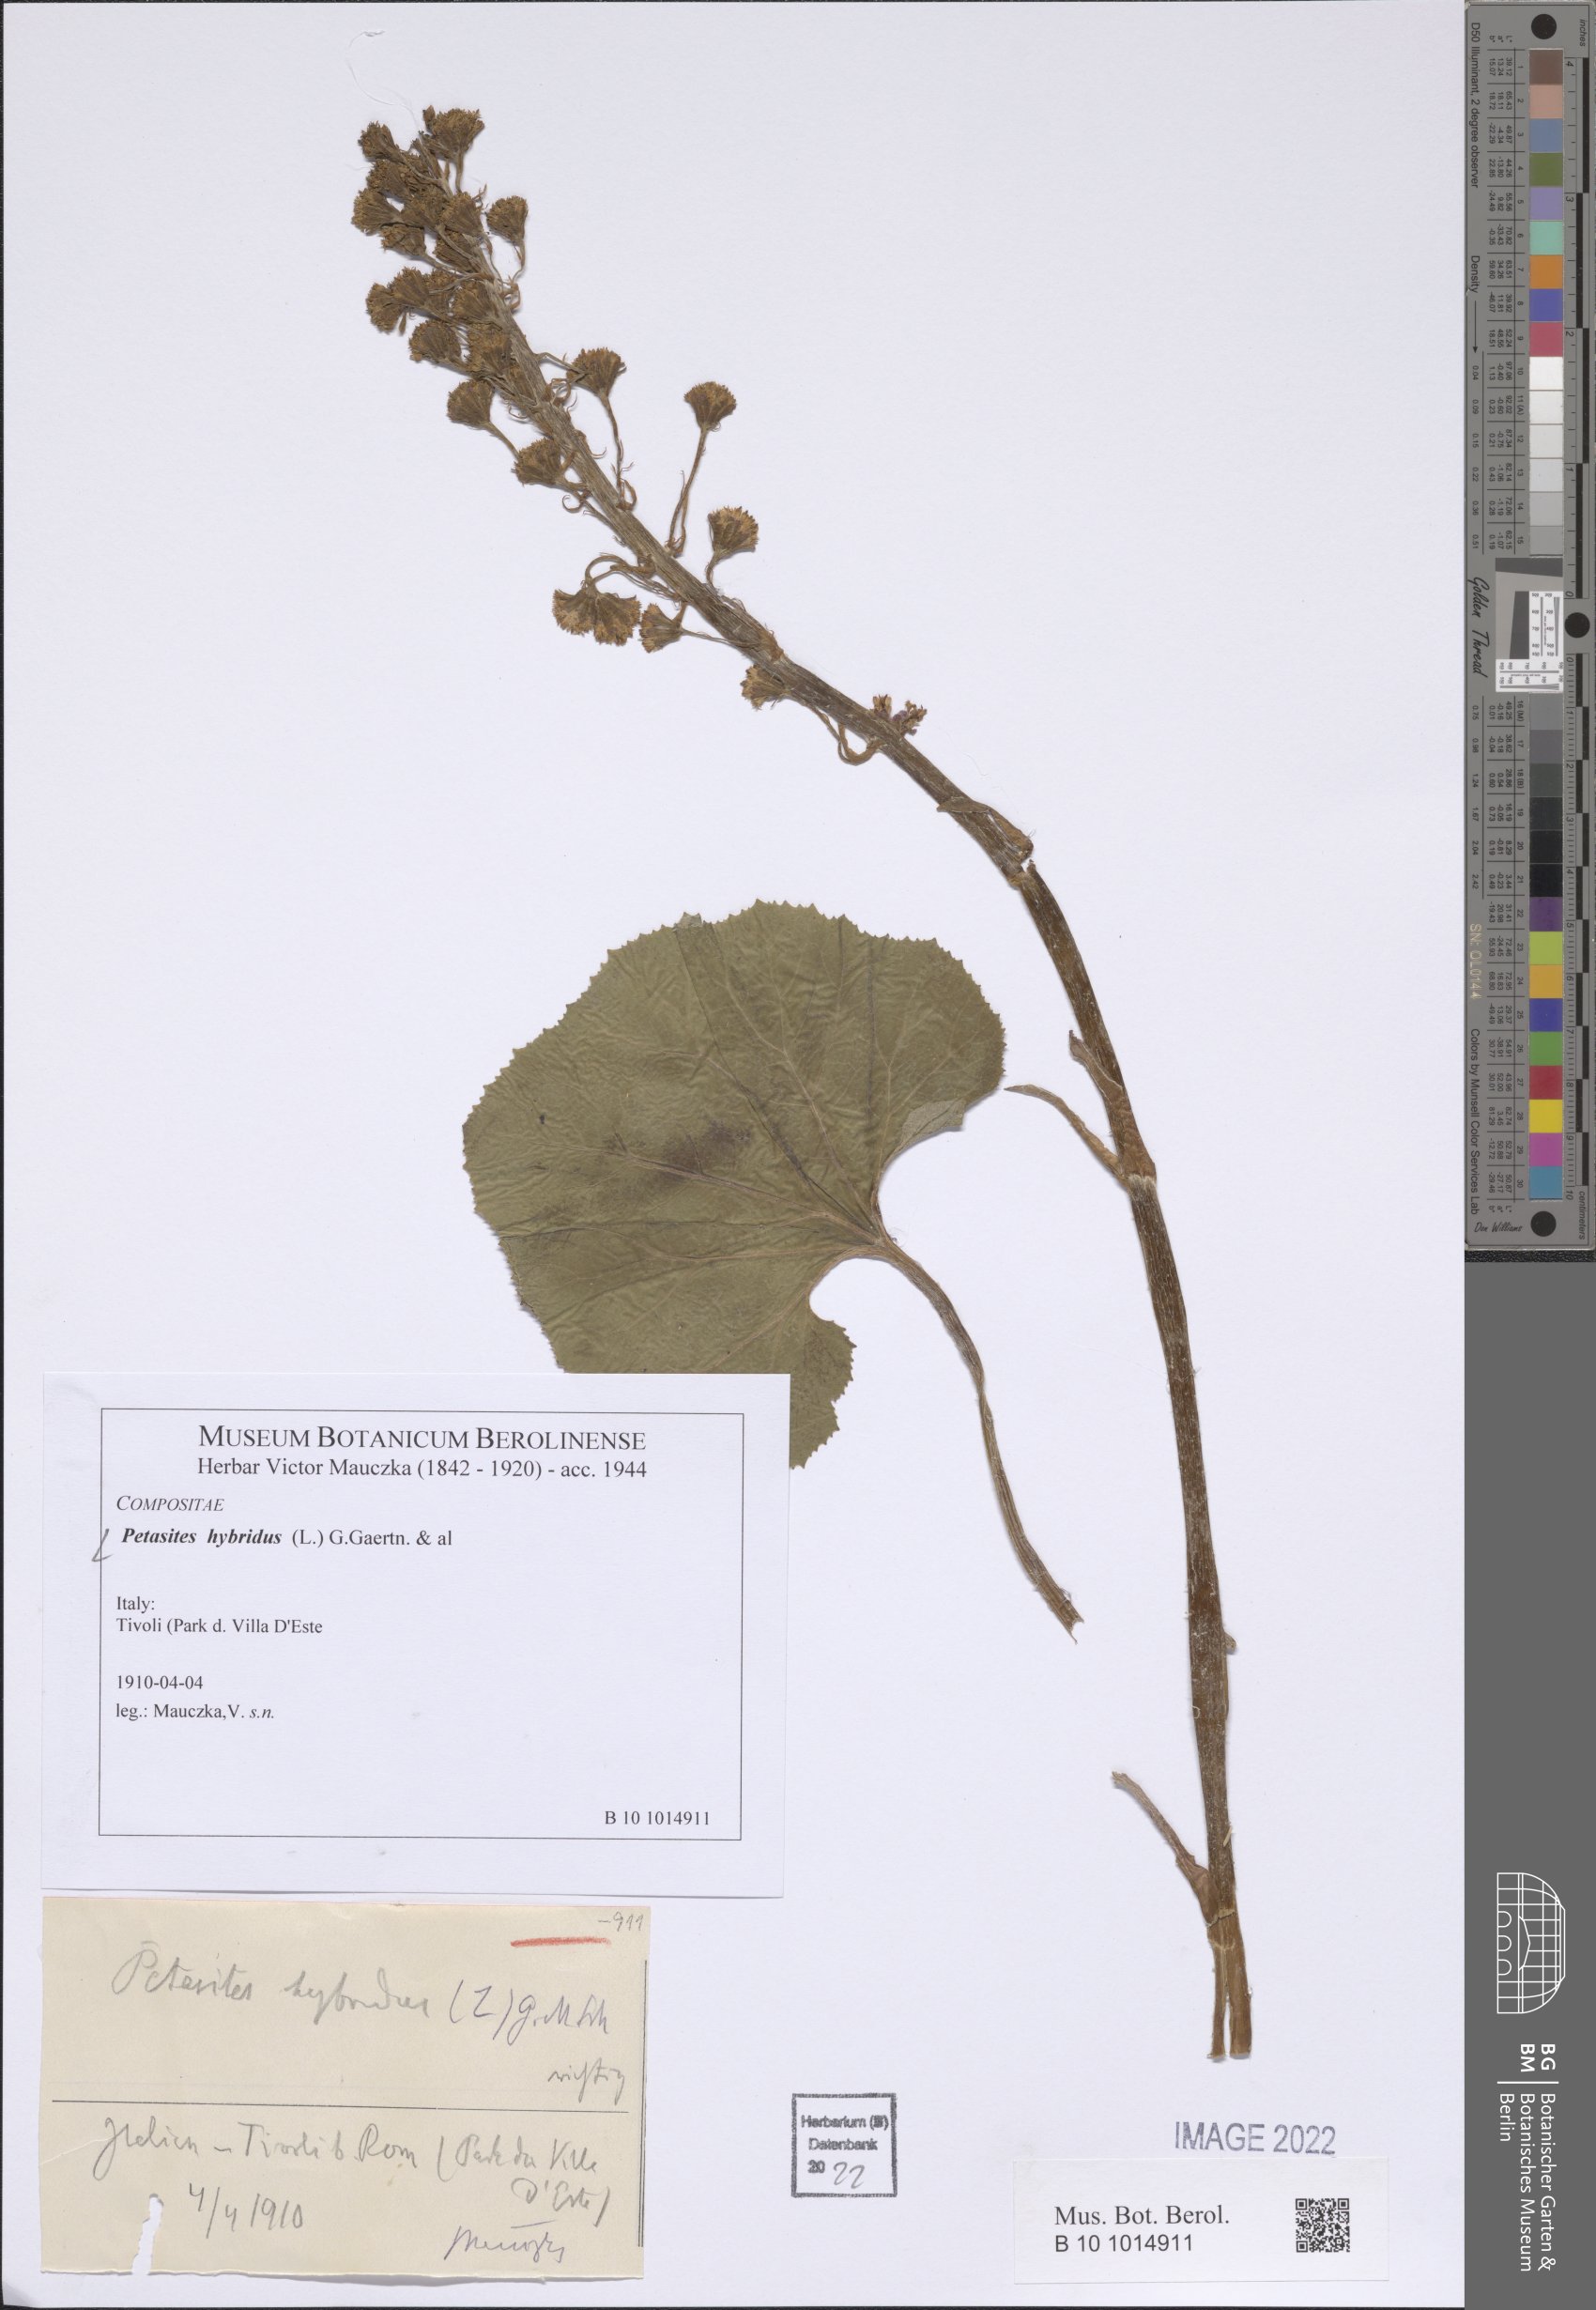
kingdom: Plantae
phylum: Tracheophyta
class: Magnoliopsida
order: Asterales
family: Asteraceae
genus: Petasites
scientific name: Petasites hybridus
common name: Butterbur
